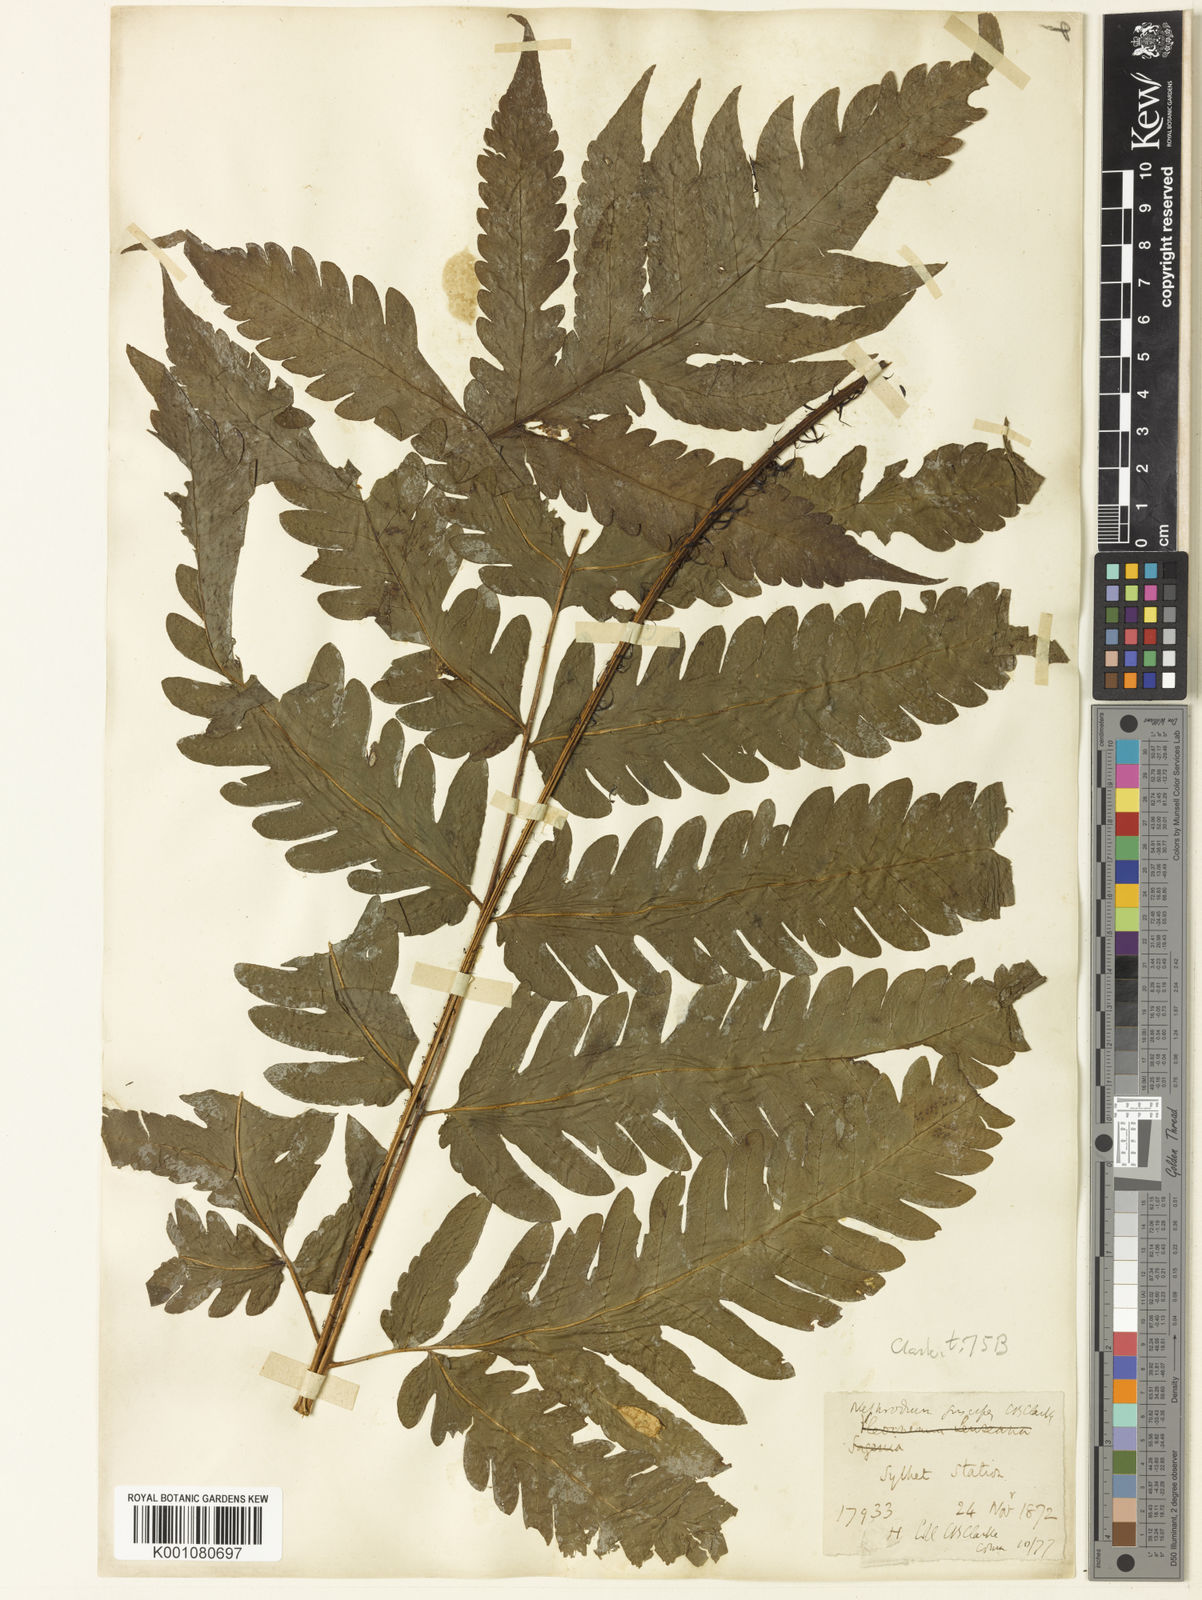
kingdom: Plantae
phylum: Tracheophyta
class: Polypodiopsida
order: Polypodiales
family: Tectariaceae
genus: Tectaria
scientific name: Tectaria fuscipes
